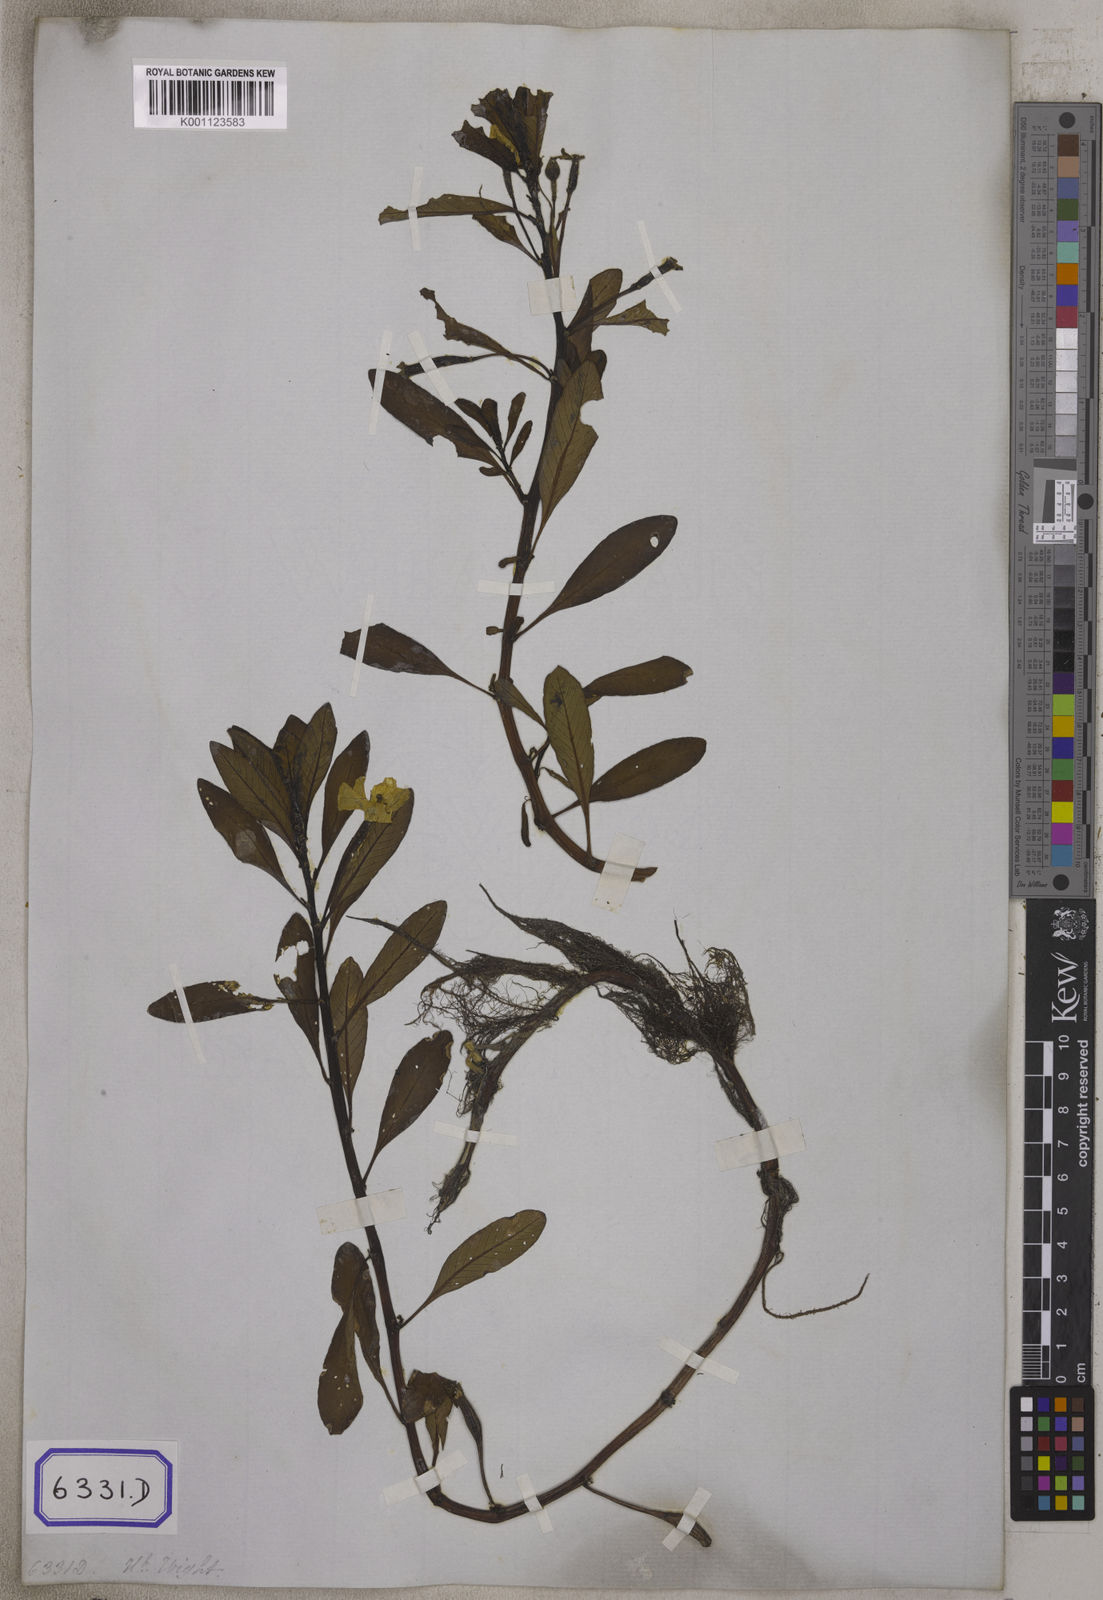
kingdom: Plantae
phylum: Tracheophyta
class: Magnoliopsida
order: Myrtales
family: Onagraceae
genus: Ludwigia
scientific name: Ludwigia adscendens
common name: Creeping water primrose
